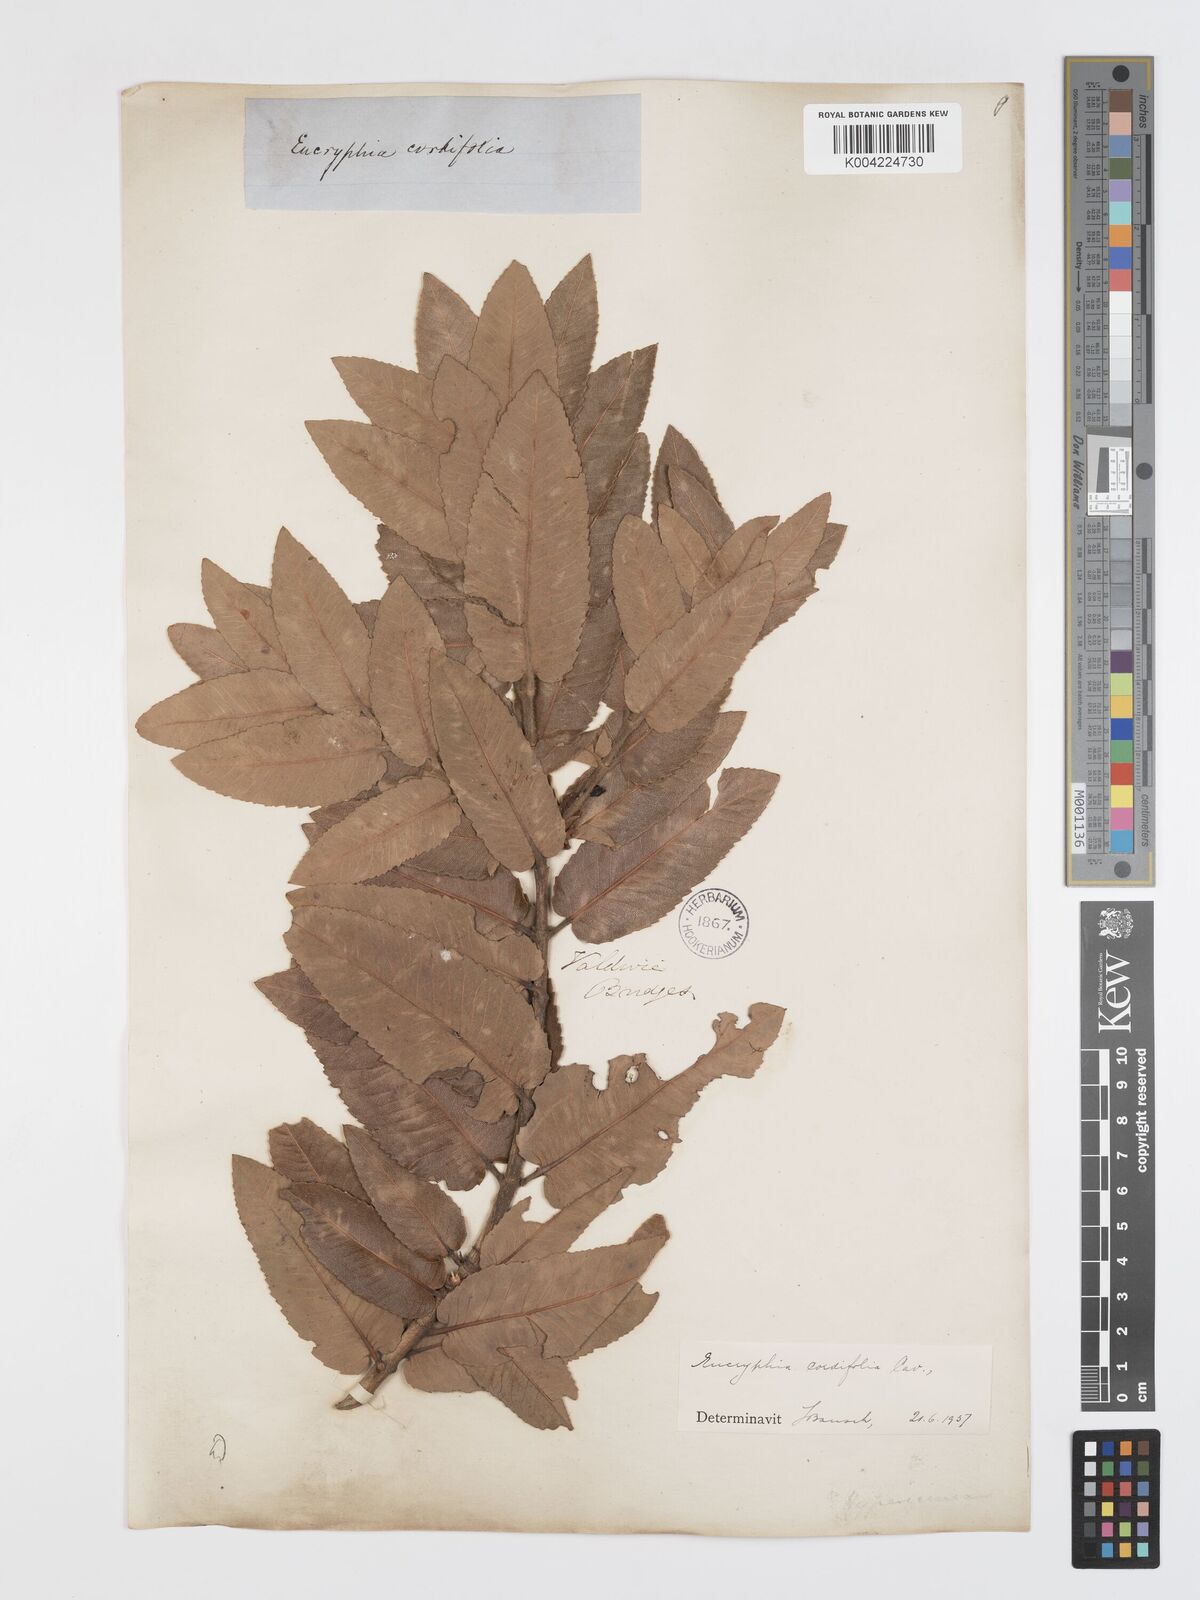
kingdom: Plantae
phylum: Tracheophyta
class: Magnoliopsida
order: Oxalidales
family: Cunoniaceae
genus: Eucryphia
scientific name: Eucryphia cordifolia
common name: Ulmo
